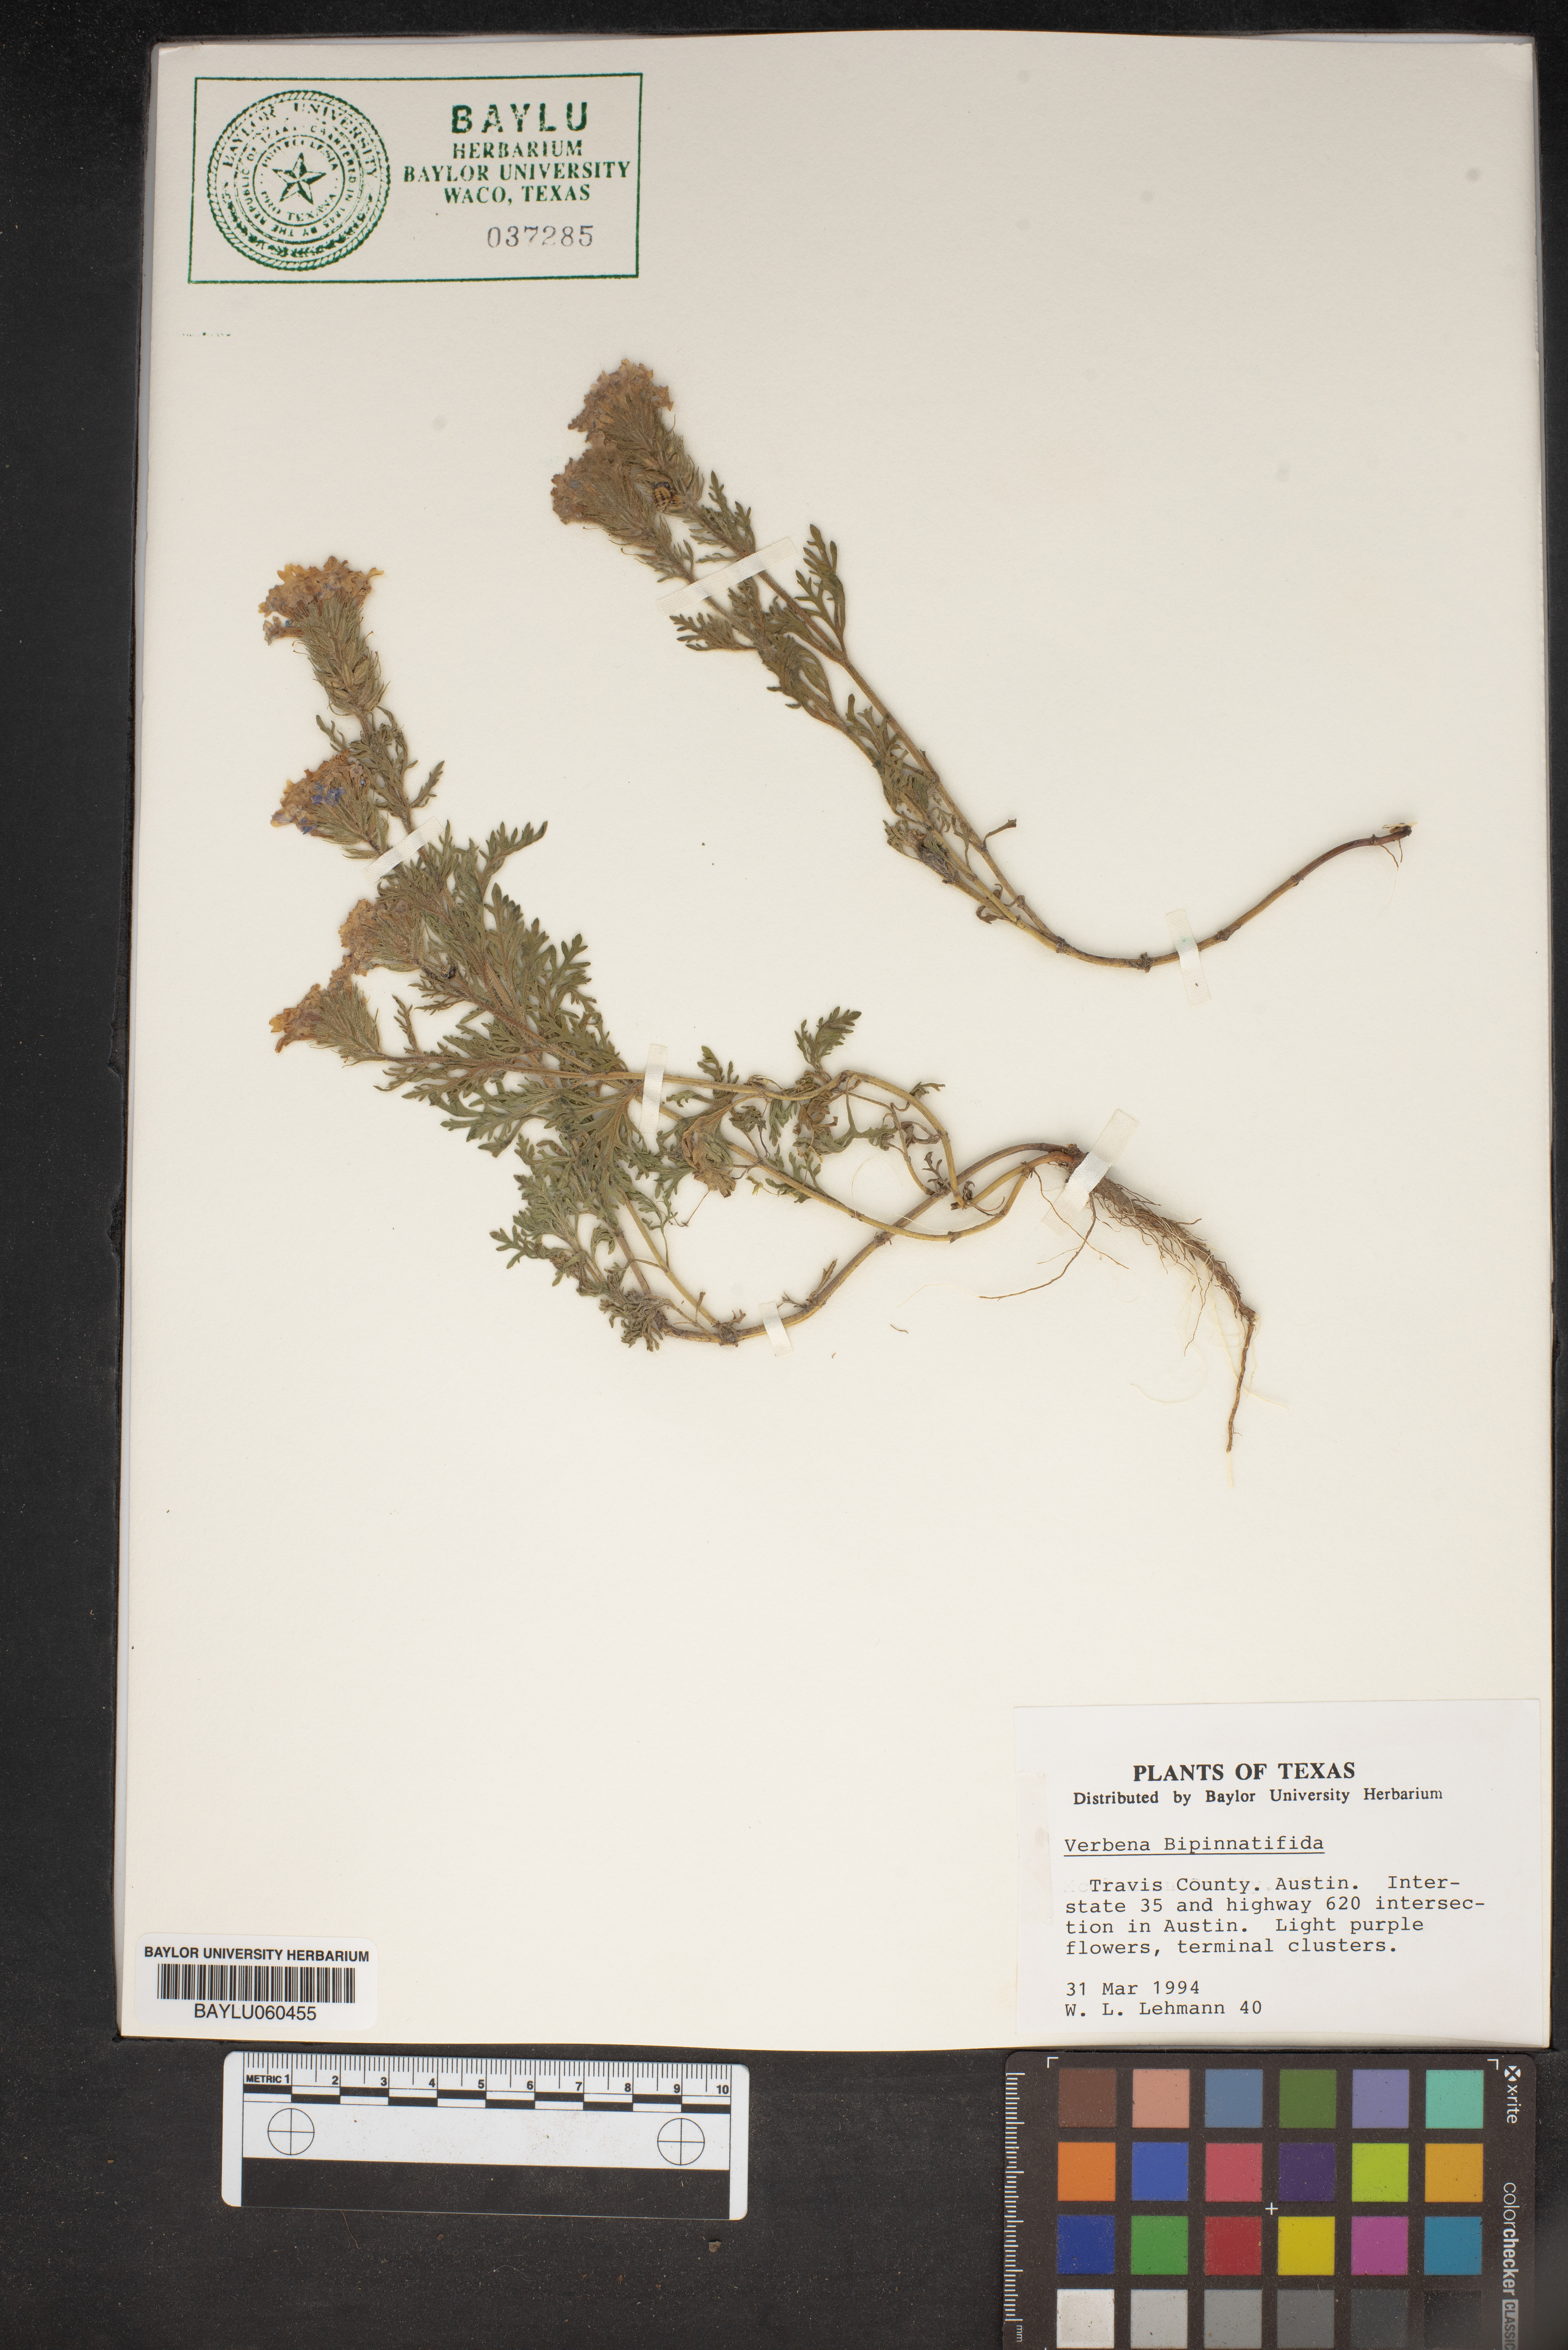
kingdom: Plantae
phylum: Tracheophyta
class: Magnoliopsida
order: Lamiales
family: Verbenaceae
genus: Verbena
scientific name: Verbena bipinnatifida
